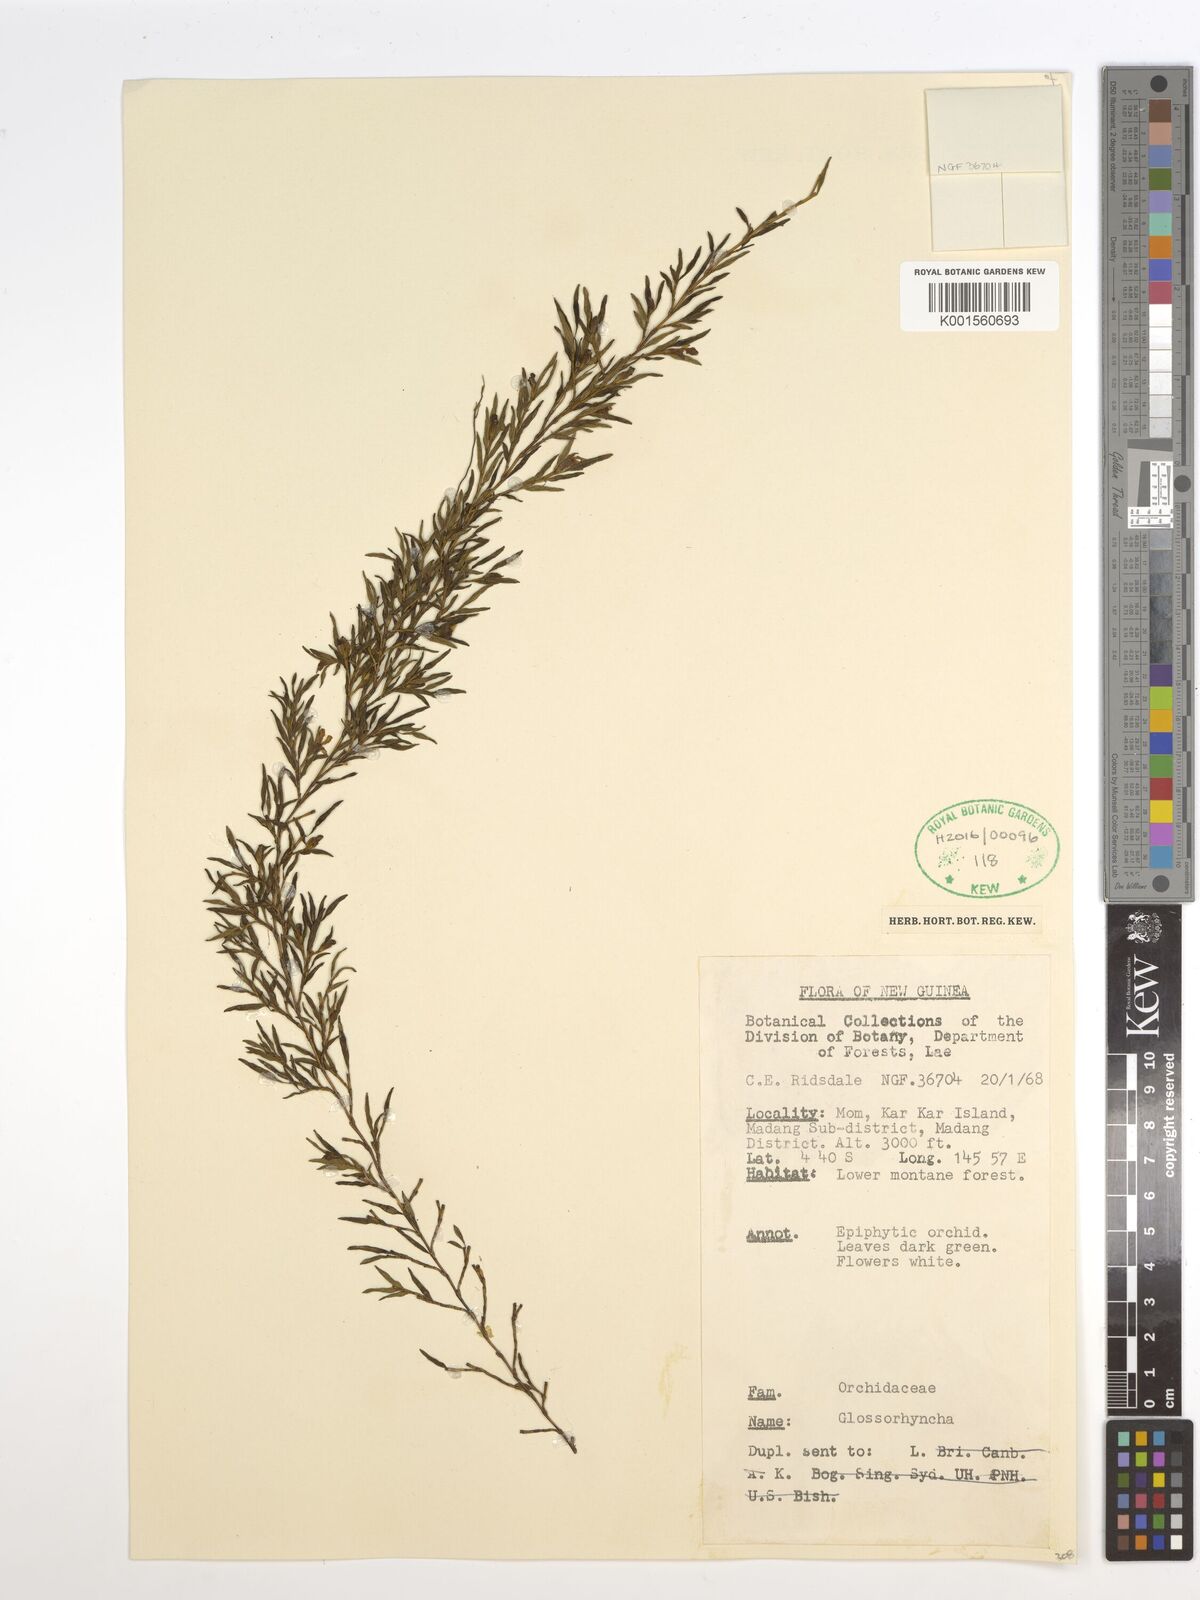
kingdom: Plantae
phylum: Tracheophyta
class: Liliopsida
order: Asparagales
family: Orchidaceae
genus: Glomera
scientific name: Glomera
